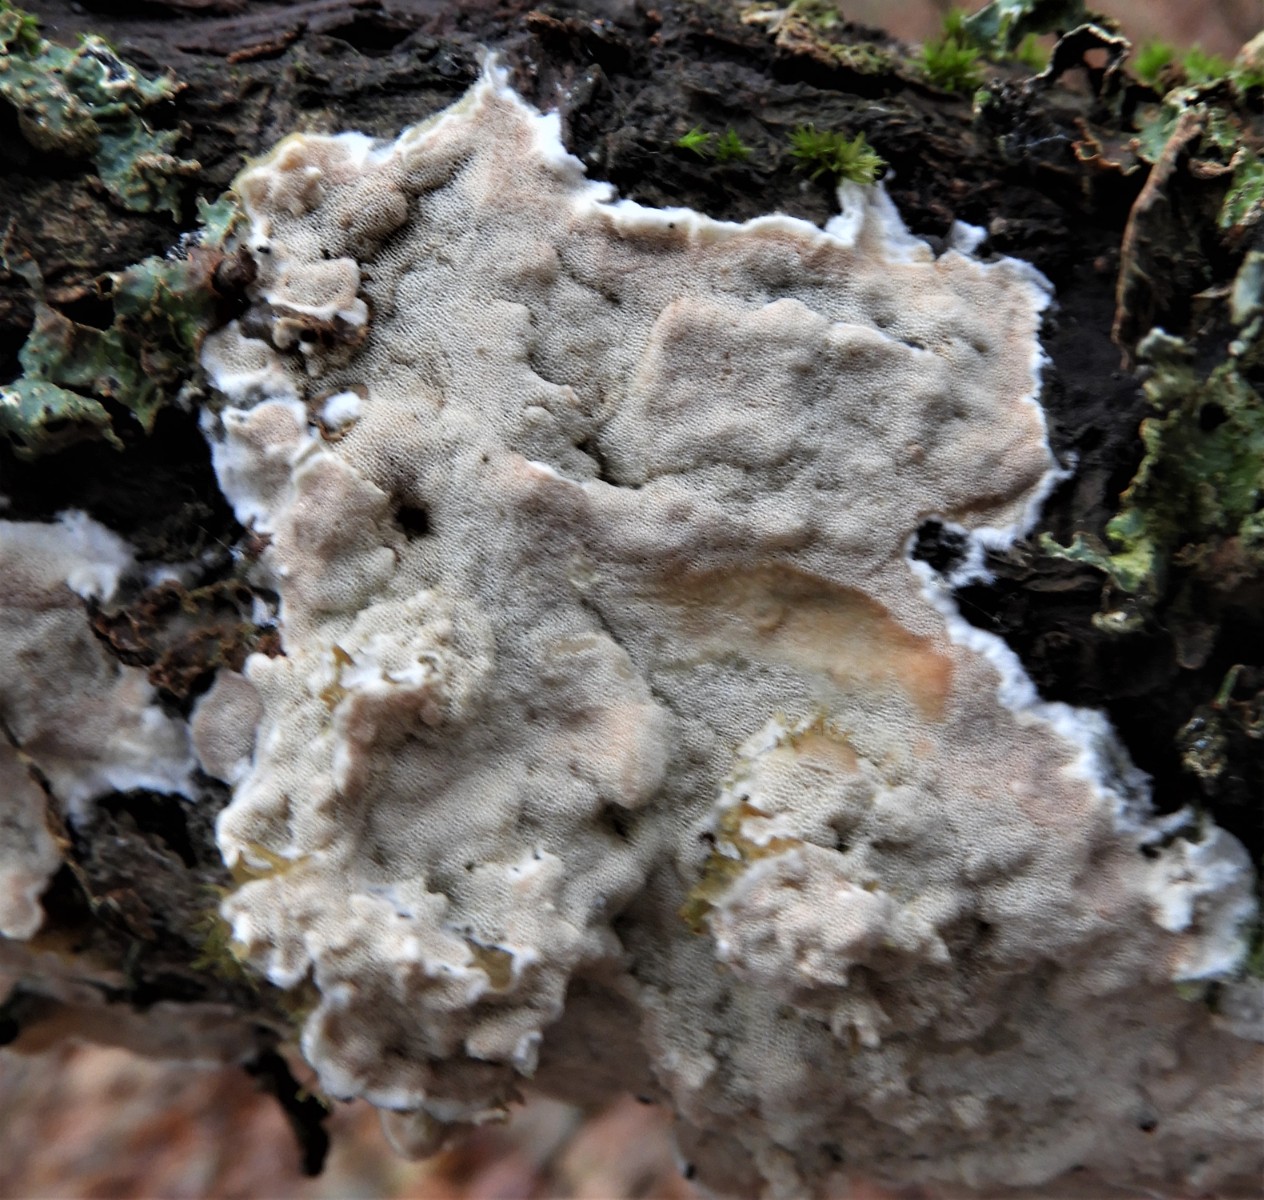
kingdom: Fungi
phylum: Basidiomycota
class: Agaricomycetes
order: Polyporales
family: Irpicaceae
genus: Vitreoporus
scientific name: Vitreoporus dichrous
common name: tofarvet foldporesvamp
